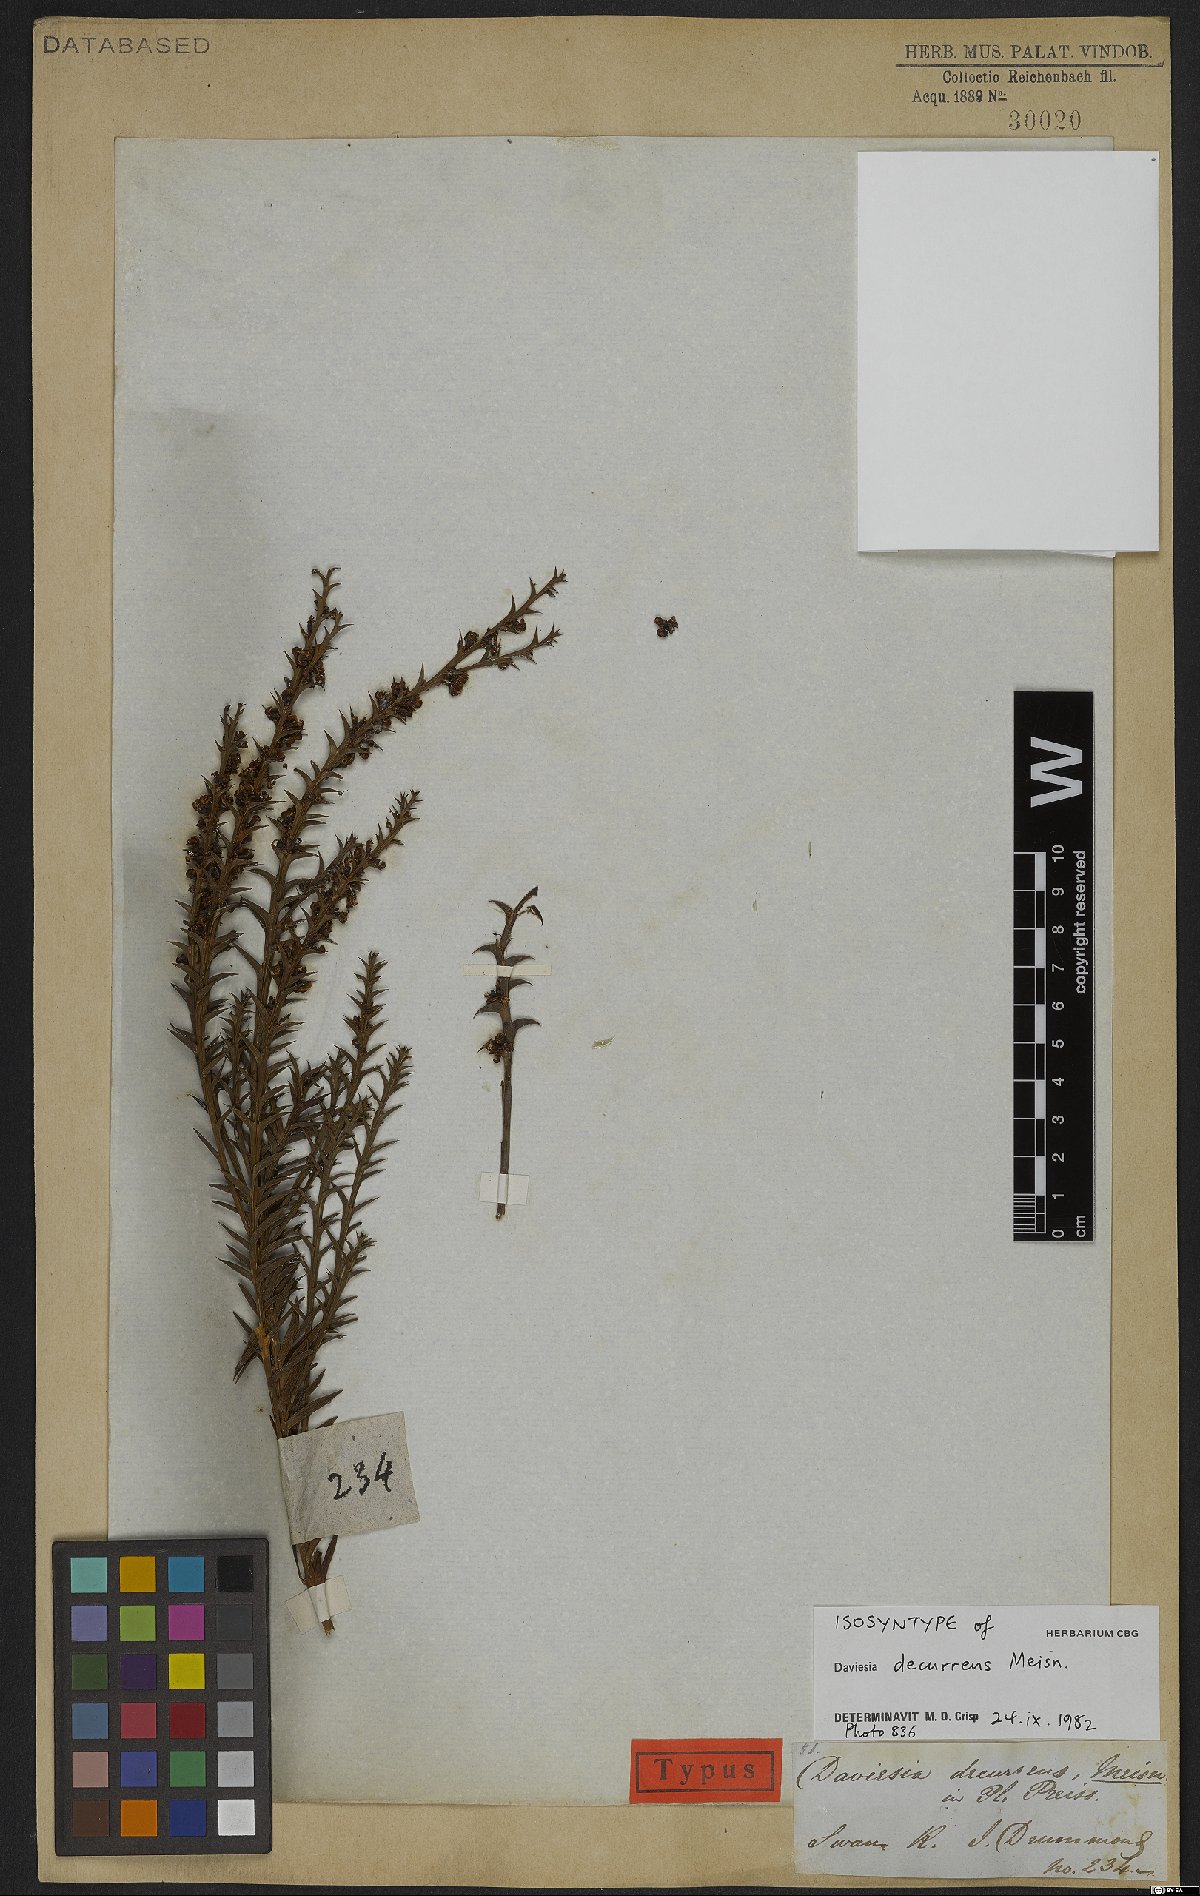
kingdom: Plantae
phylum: Tracheophyta
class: Magnoliopsida
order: Fabales
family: Fabaceae
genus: Daviesia
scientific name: Daviesia decurrens
